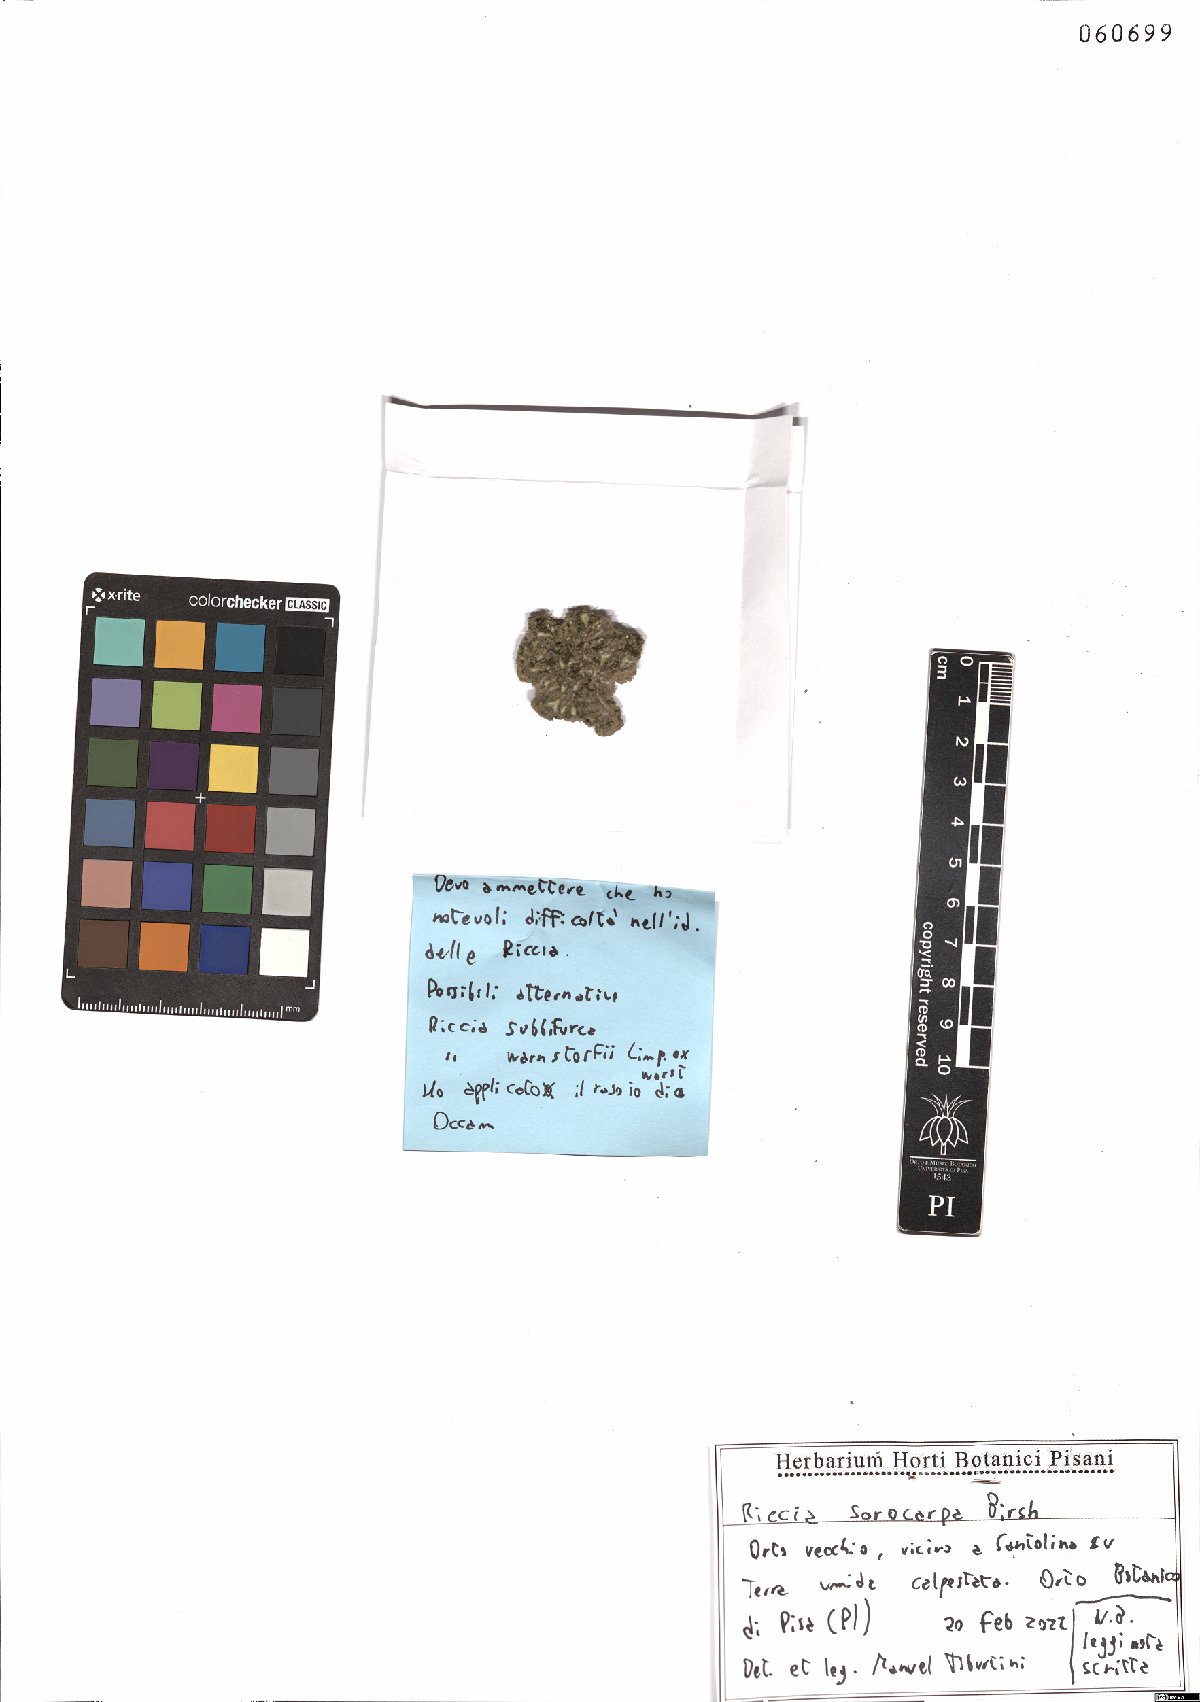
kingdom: Plantae
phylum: Marchantiophyta
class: Marchantiopsida
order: Marchantiales
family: Ricciaceae
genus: Riccia
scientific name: Riccia sorocarpa
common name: Common crystalwort
